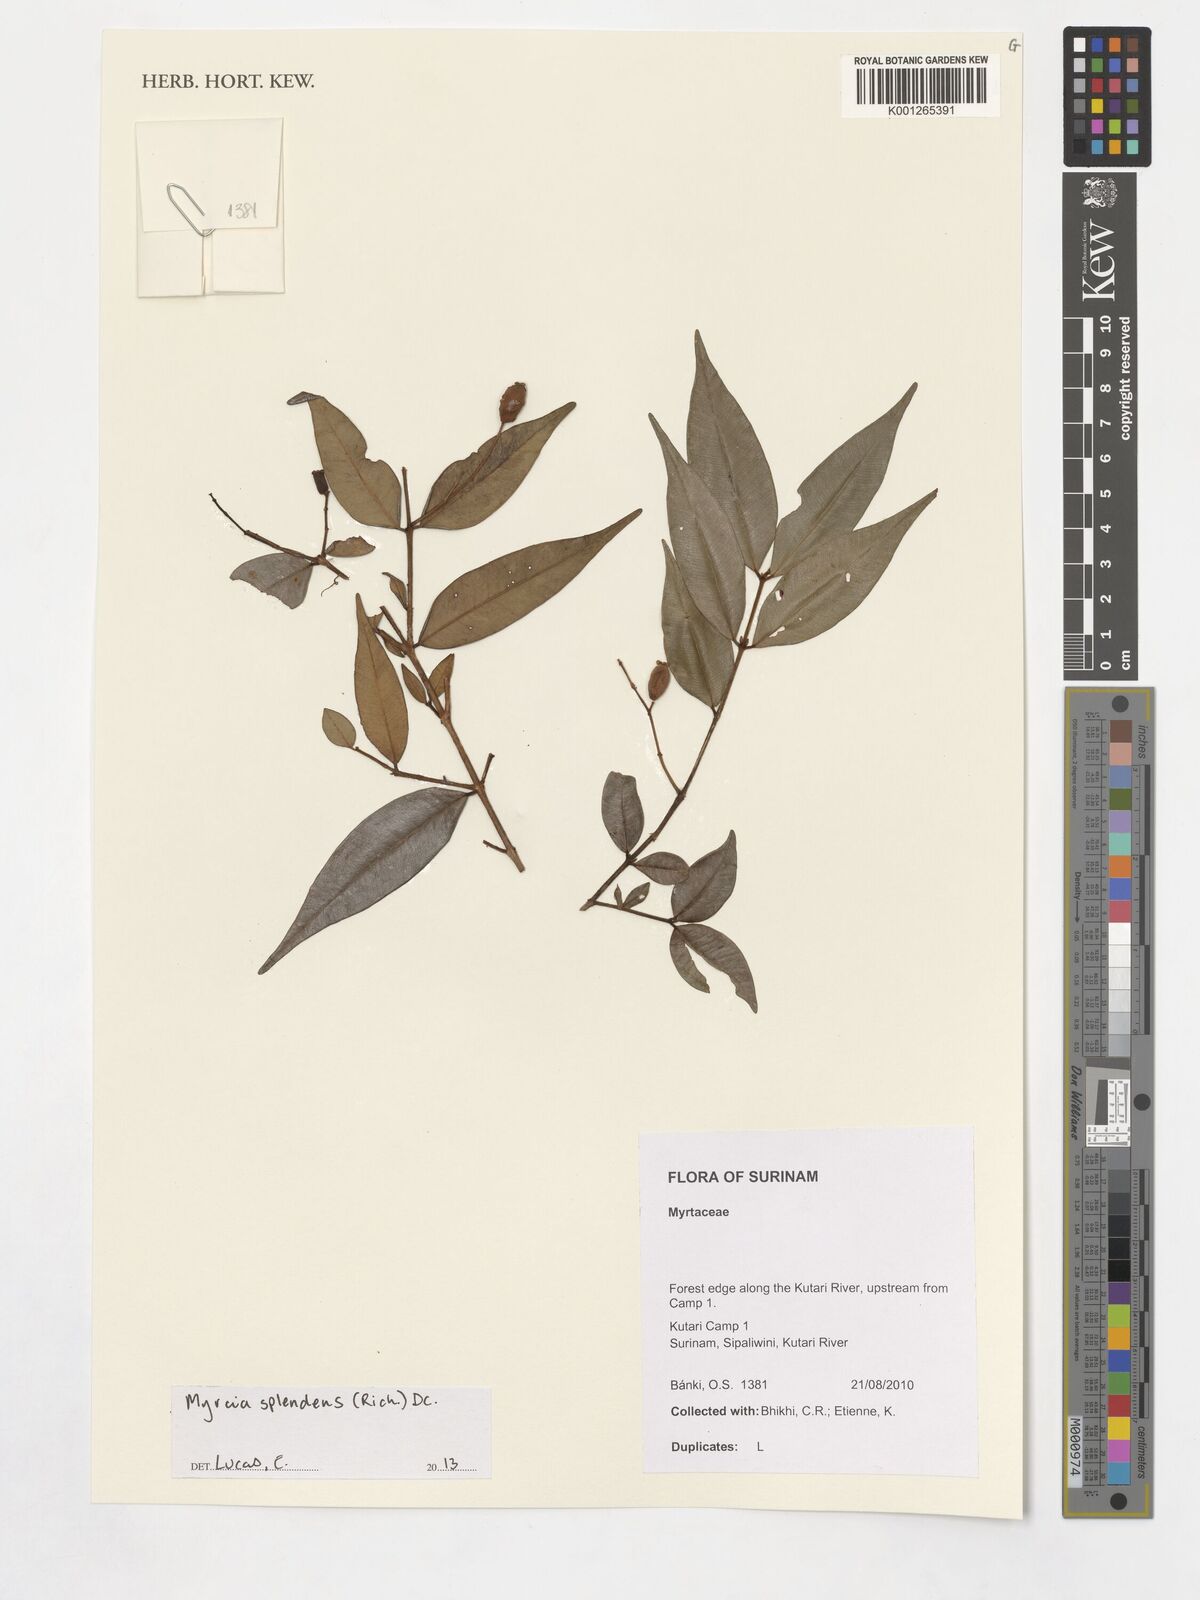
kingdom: Plantae
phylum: Tracheophyta
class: Magnoliopsida
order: Myrtales
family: Myrtaceae
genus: Myrcia
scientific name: Myrcia splendens
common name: Surinam cherry
